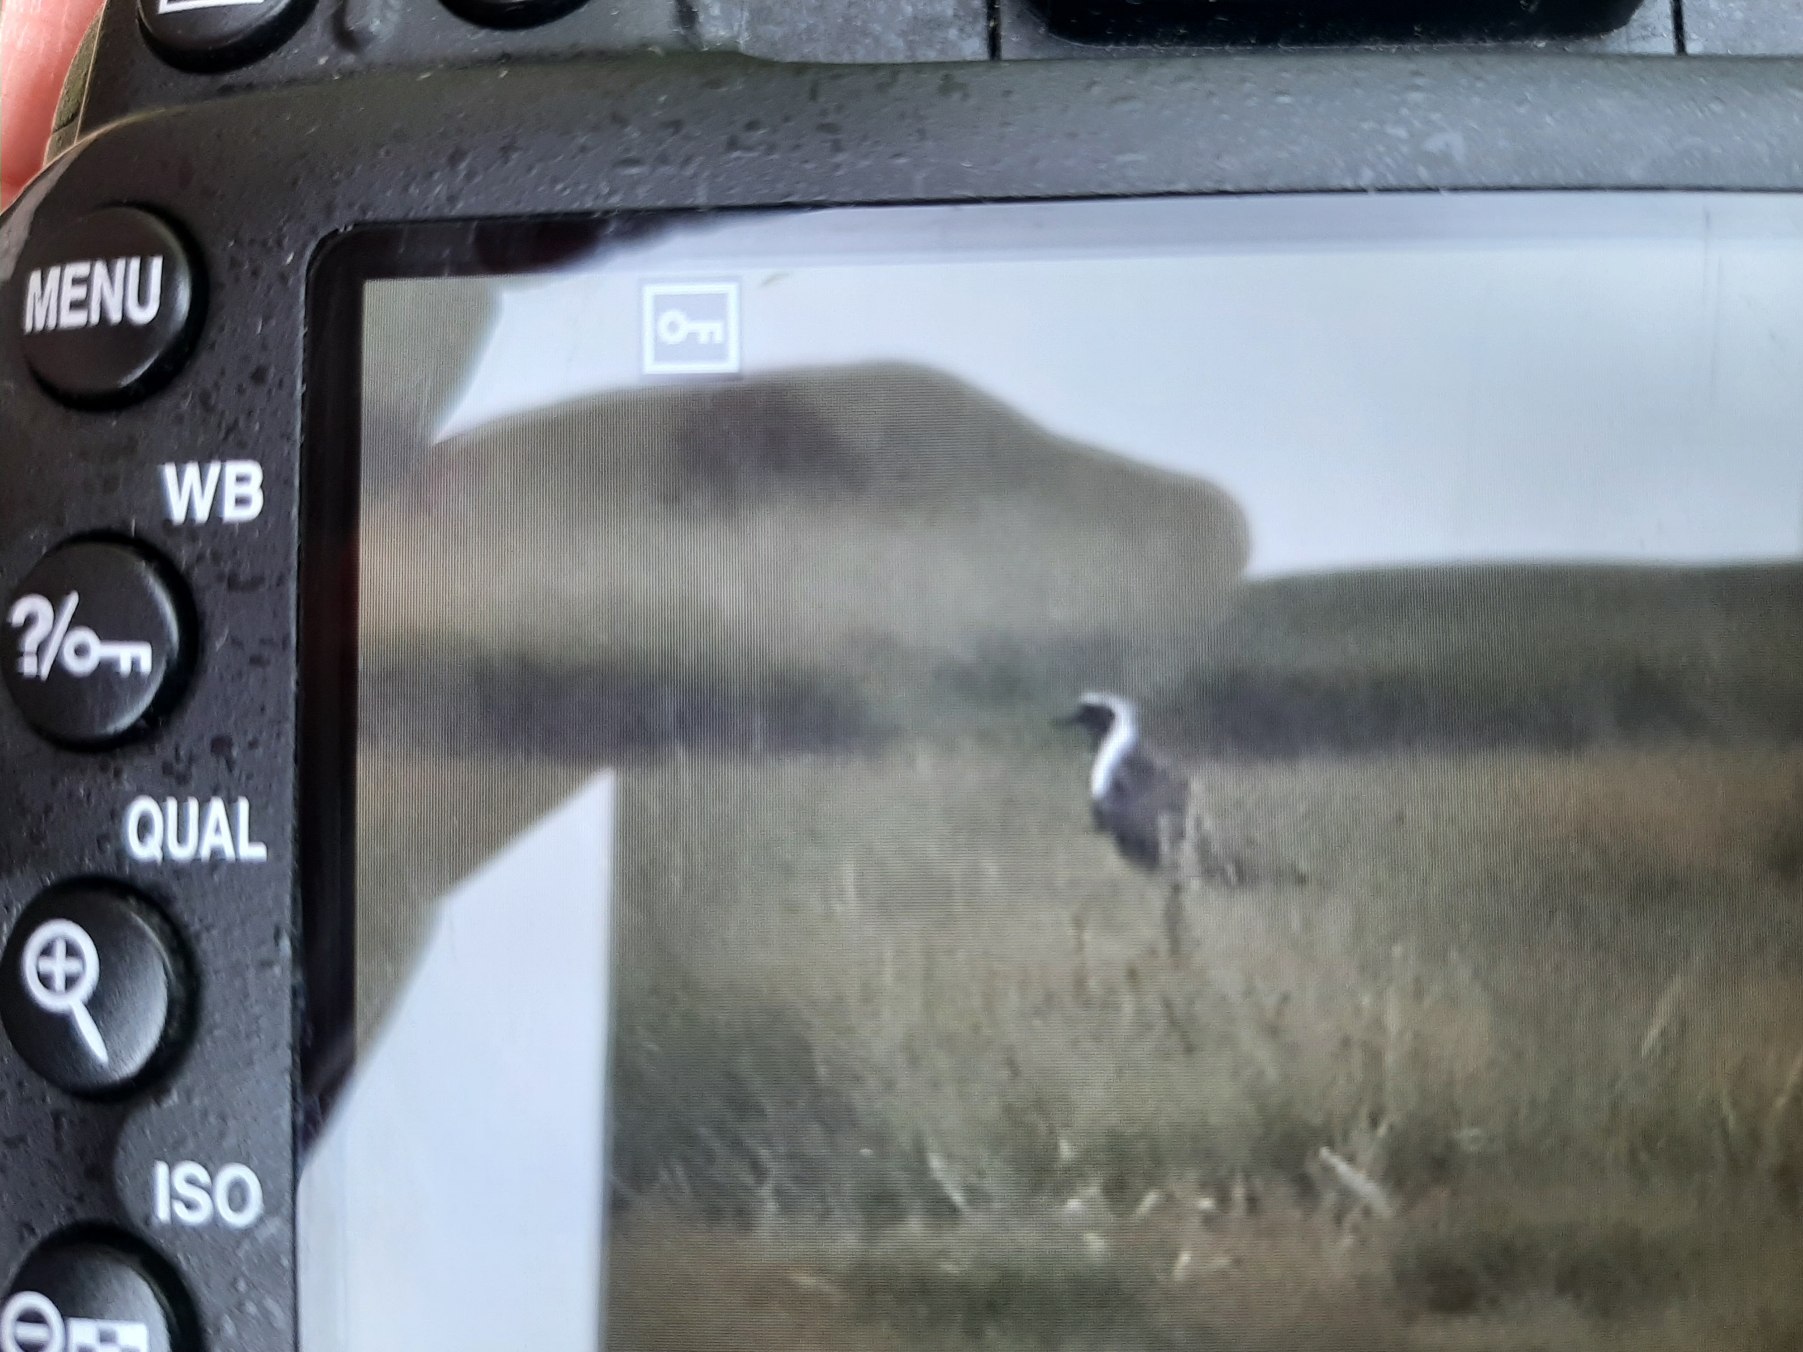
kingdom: Animalia
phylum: Chordata
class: Aves
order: Charadriiformes
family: Charadriidae
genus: Pluvialis
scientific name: Pluvialis squatarola
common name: Strandhjejle
